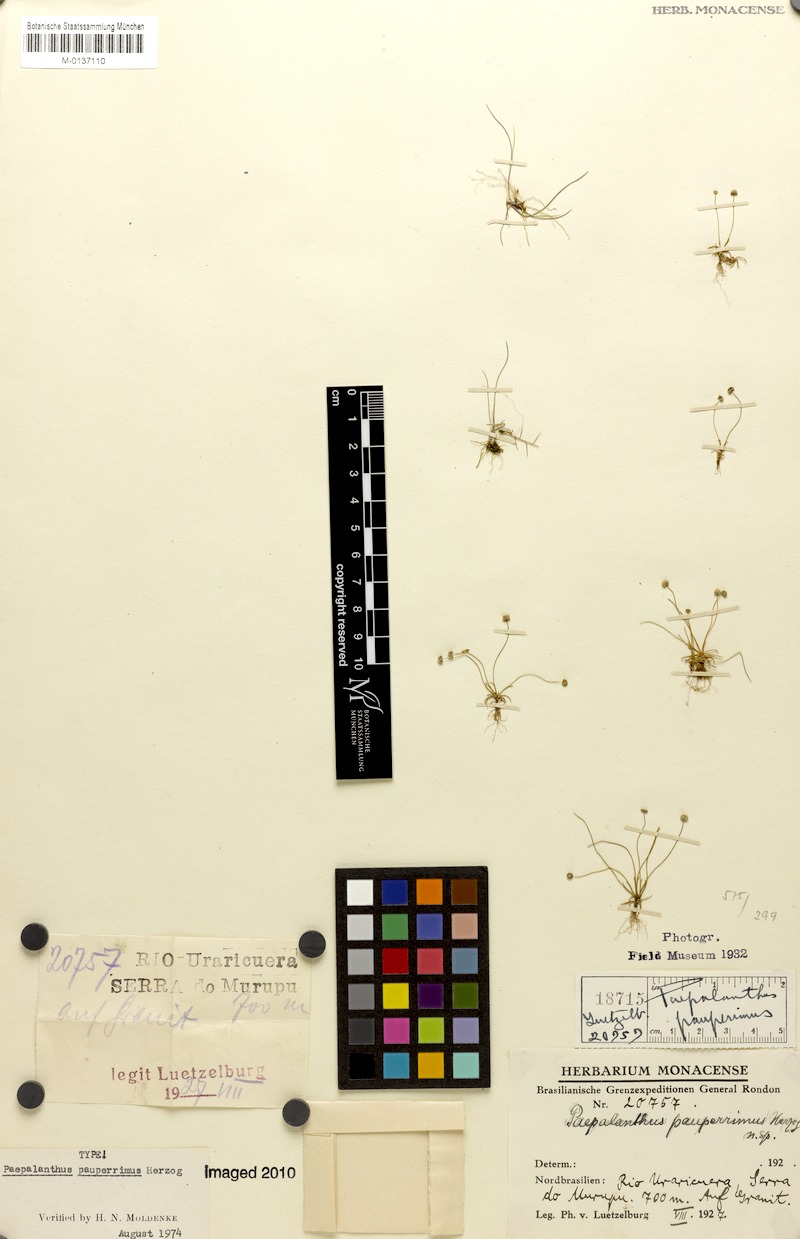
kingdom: Plantae
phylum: Tracheophyta
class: Liliopsida
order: Poales
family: Eriocaulaceae
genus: Paepalanthus
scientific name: Paepalanthus subtilis
